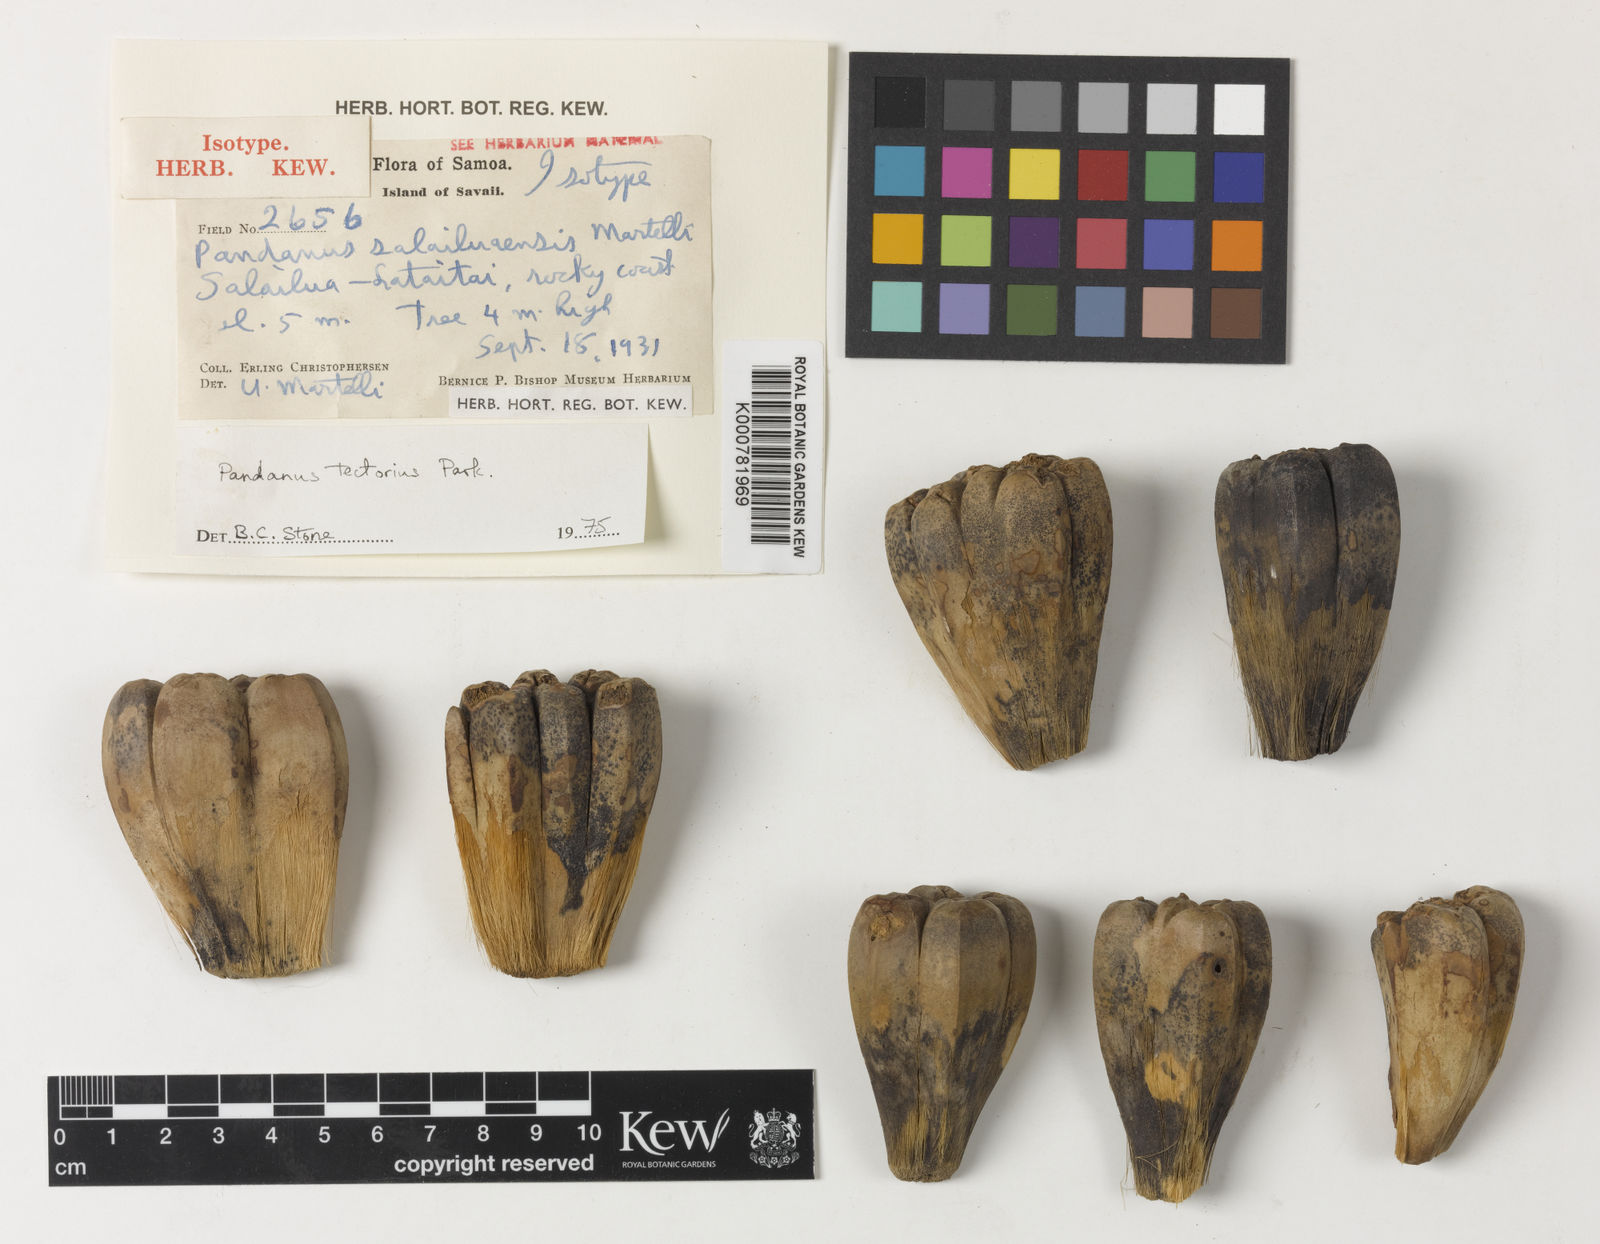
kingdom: Plantae
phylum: Tracheophyta
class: Liliopsida
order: Pandanales
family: Pandanaceae
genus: Pandanus
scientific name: Pandanus salailuaensis
